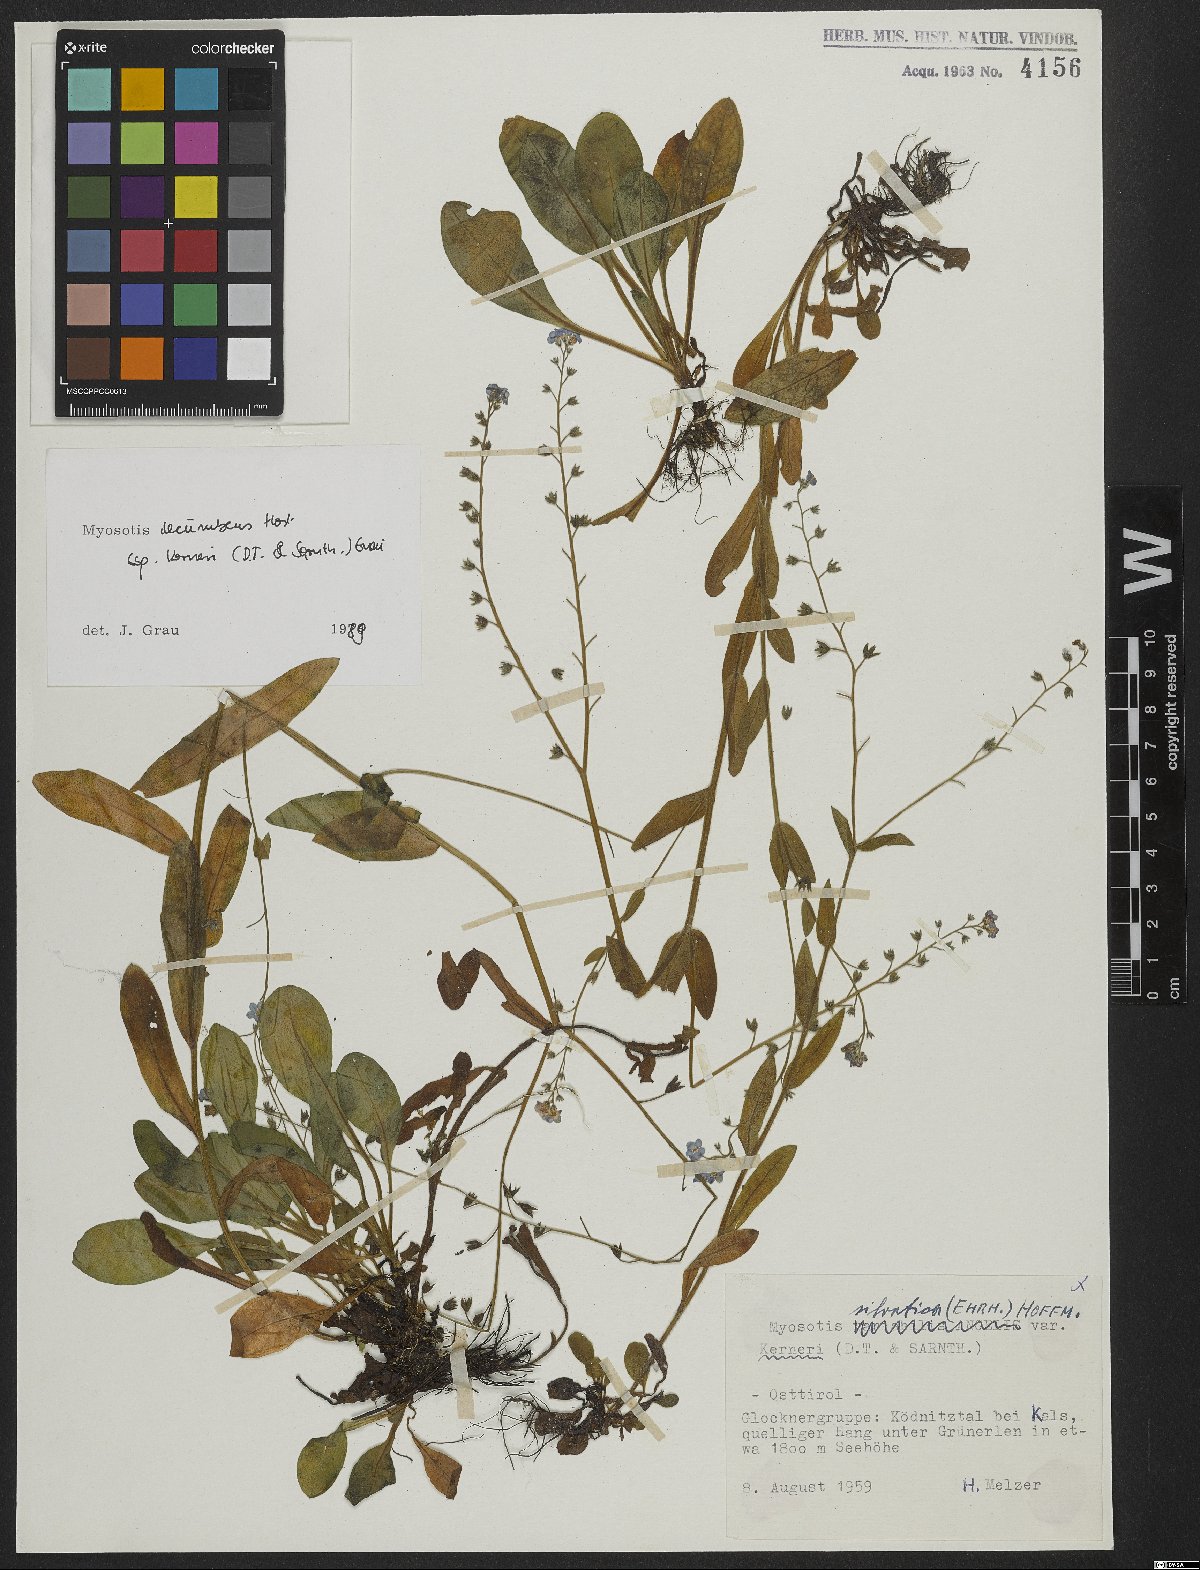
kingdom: Plantae
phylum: Tracheophyta
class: Magnoliopsida
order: Boraginales
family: Boraginaceae
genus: Myosotis
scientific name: Myosotis decumbens
